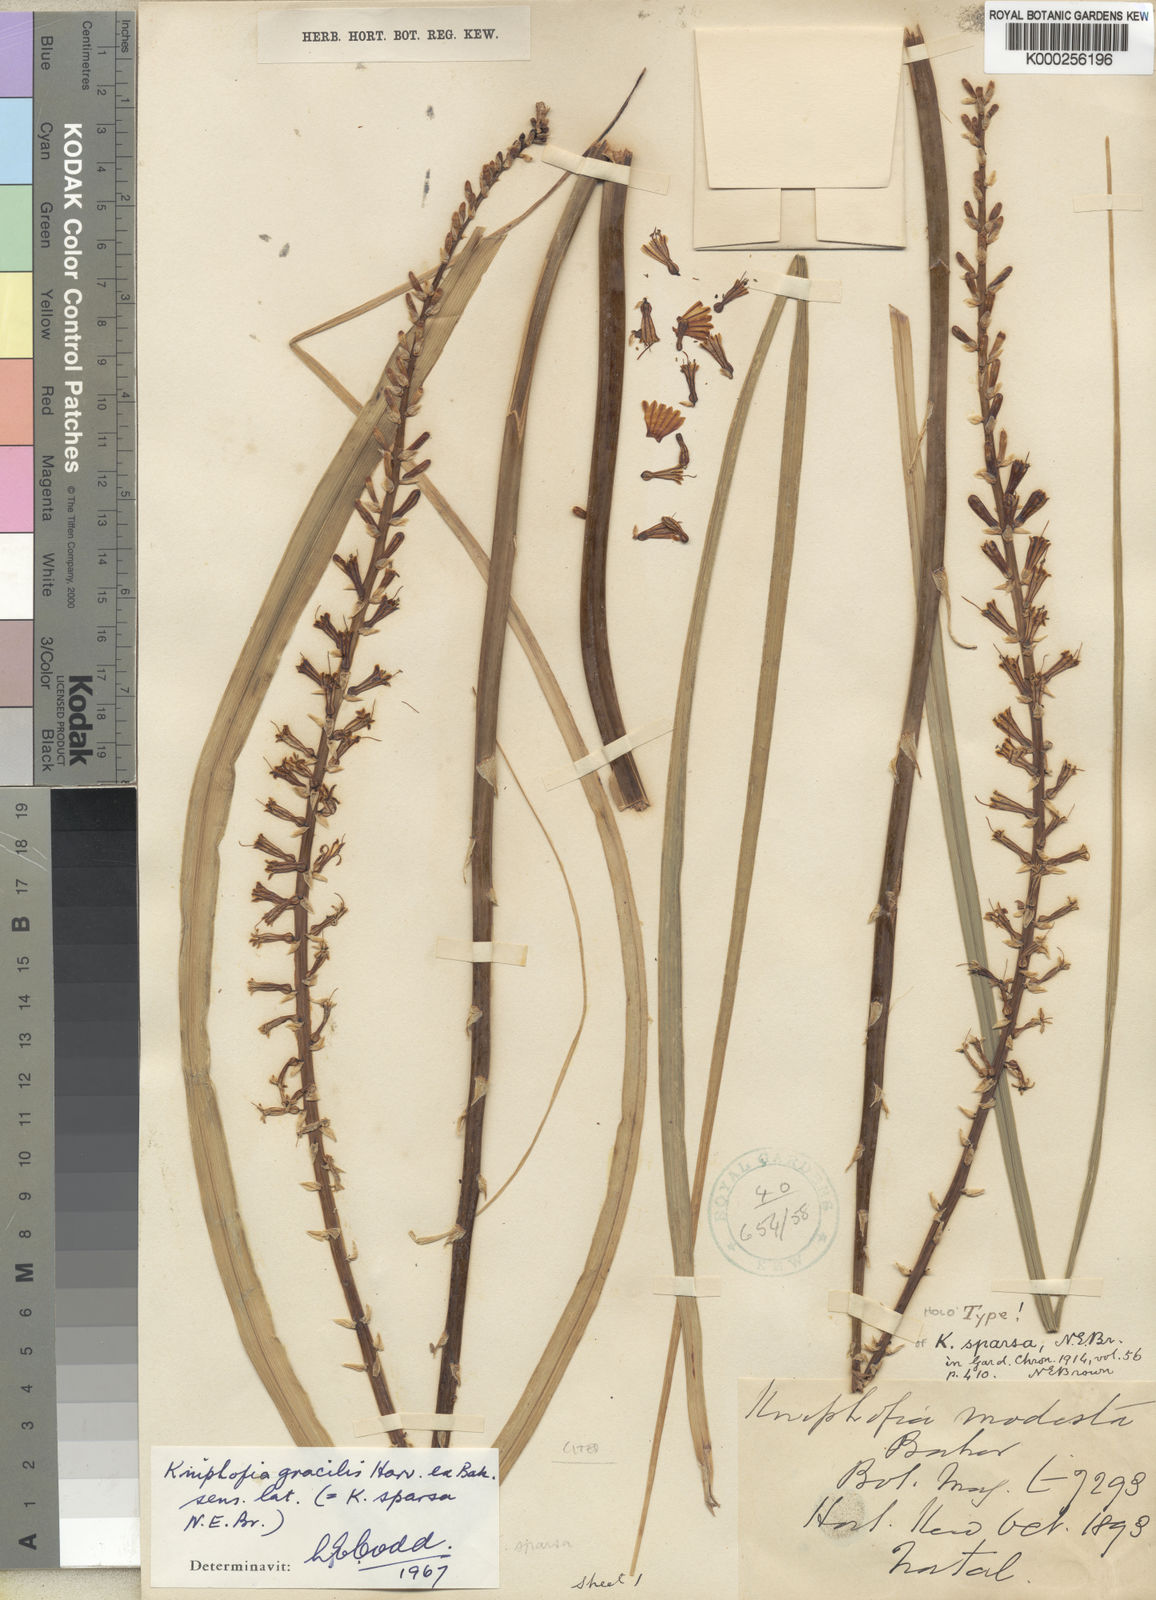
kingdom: Plantae
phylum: Tracheophyta
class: Liliopsida
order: Asparagales
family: Asphodelaceae
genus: Kniphofia
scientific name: Kniphofia gracilis
